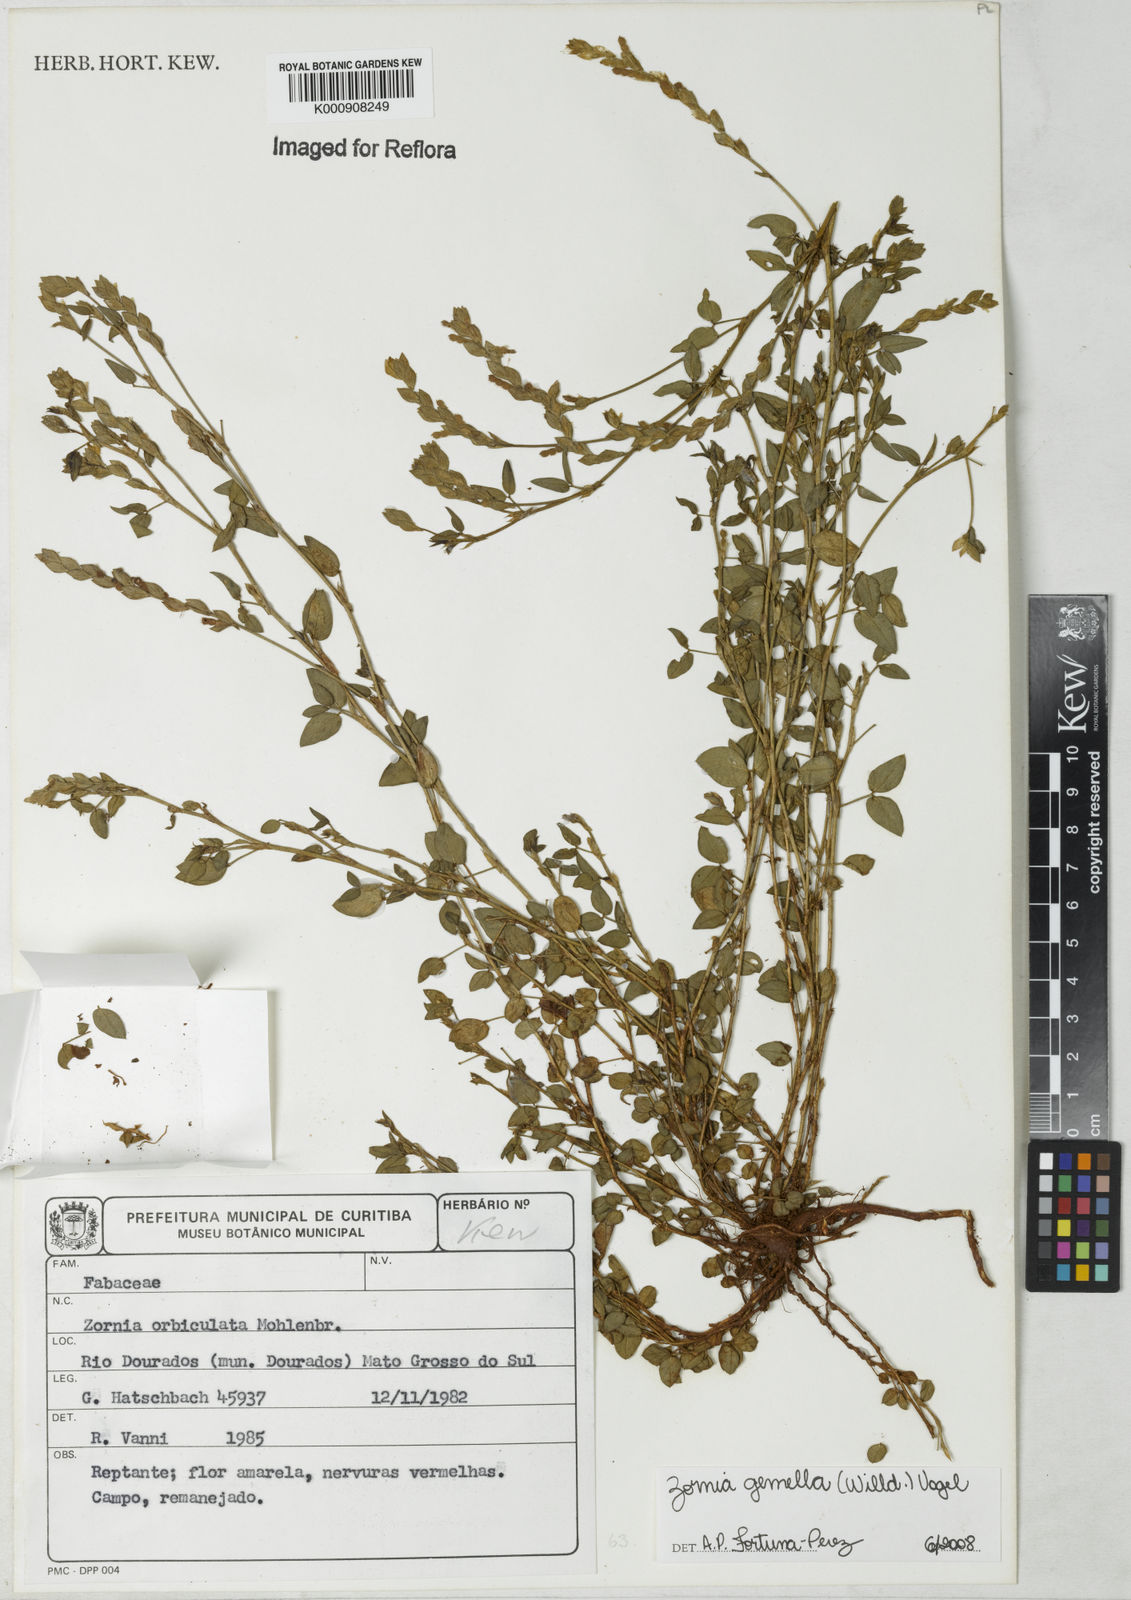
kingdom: Plantae
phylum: Tracheophyta
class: Magnoliopsida
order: Fabales
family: Fabaceae
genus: Zornia
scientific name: Zornia latifolia
